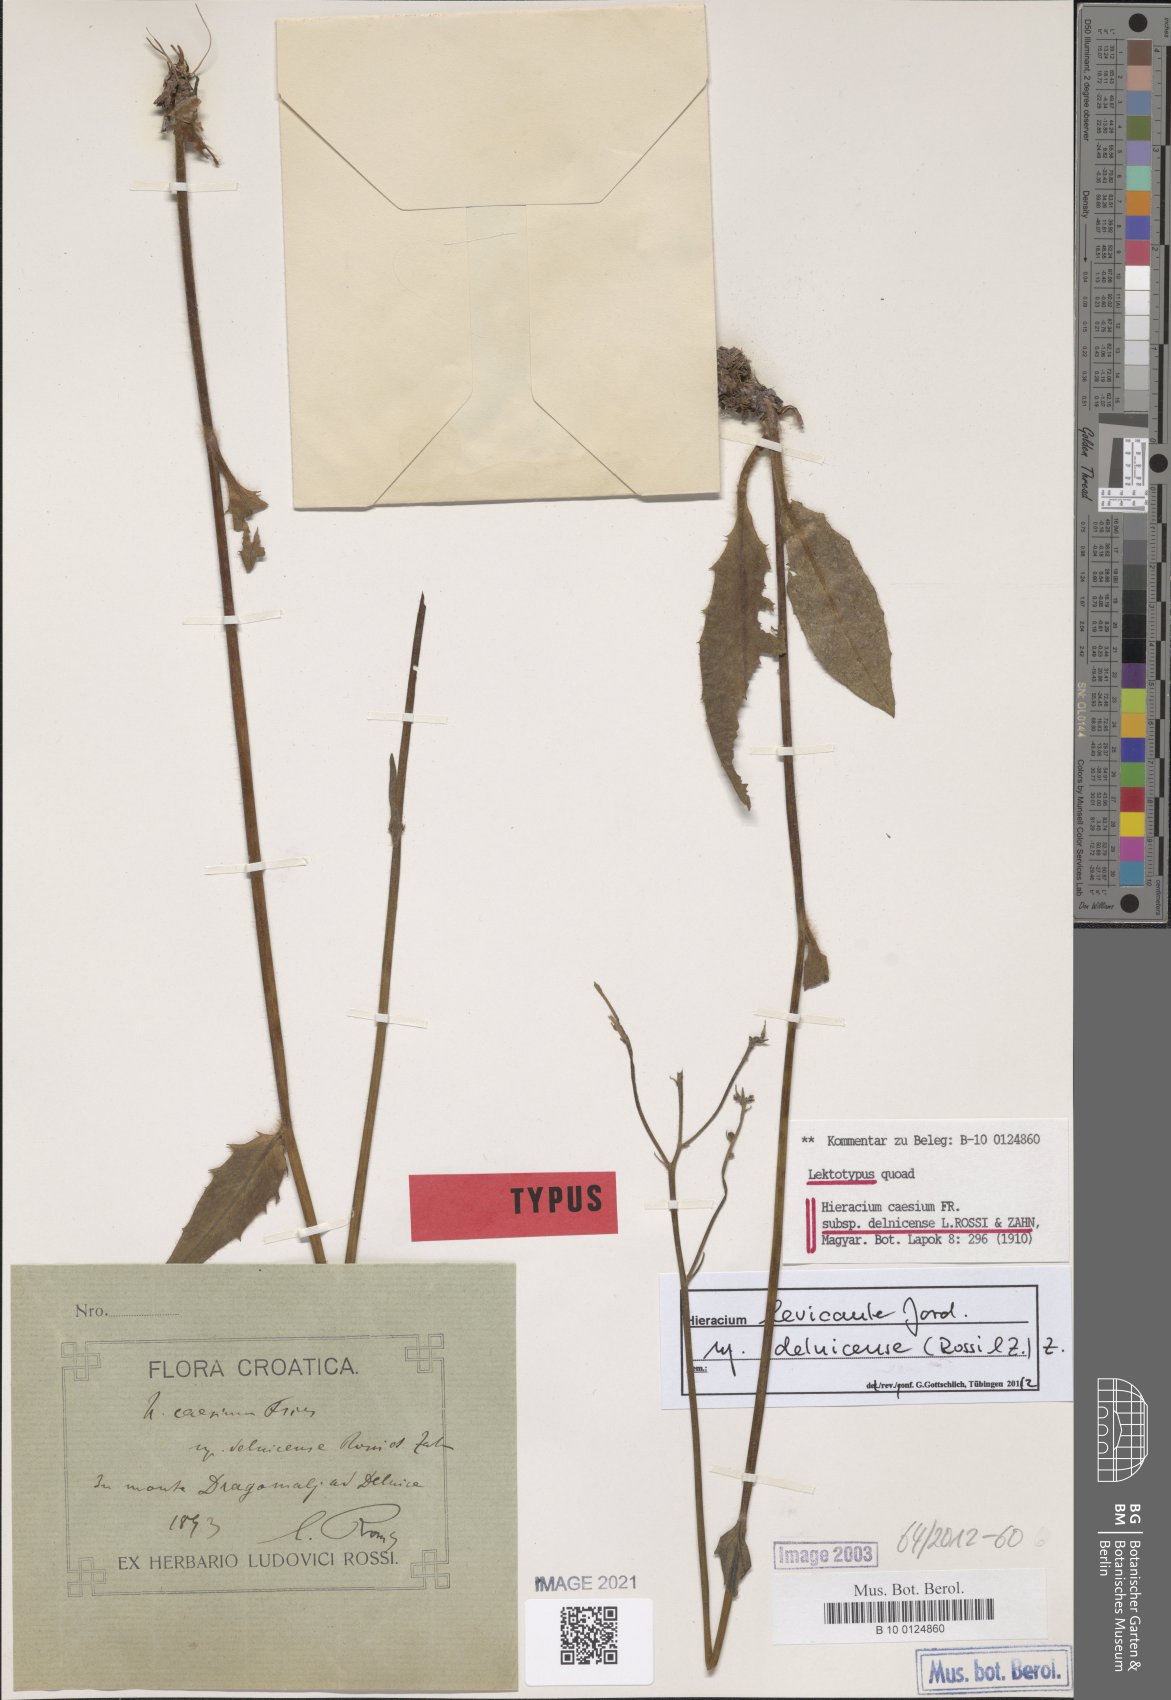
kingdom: Plantae
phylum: Tracheophyta
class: Magnoliopsida
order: Asterales
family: Asteraceae
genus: Hieracium
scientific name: Hieracium levicaule
